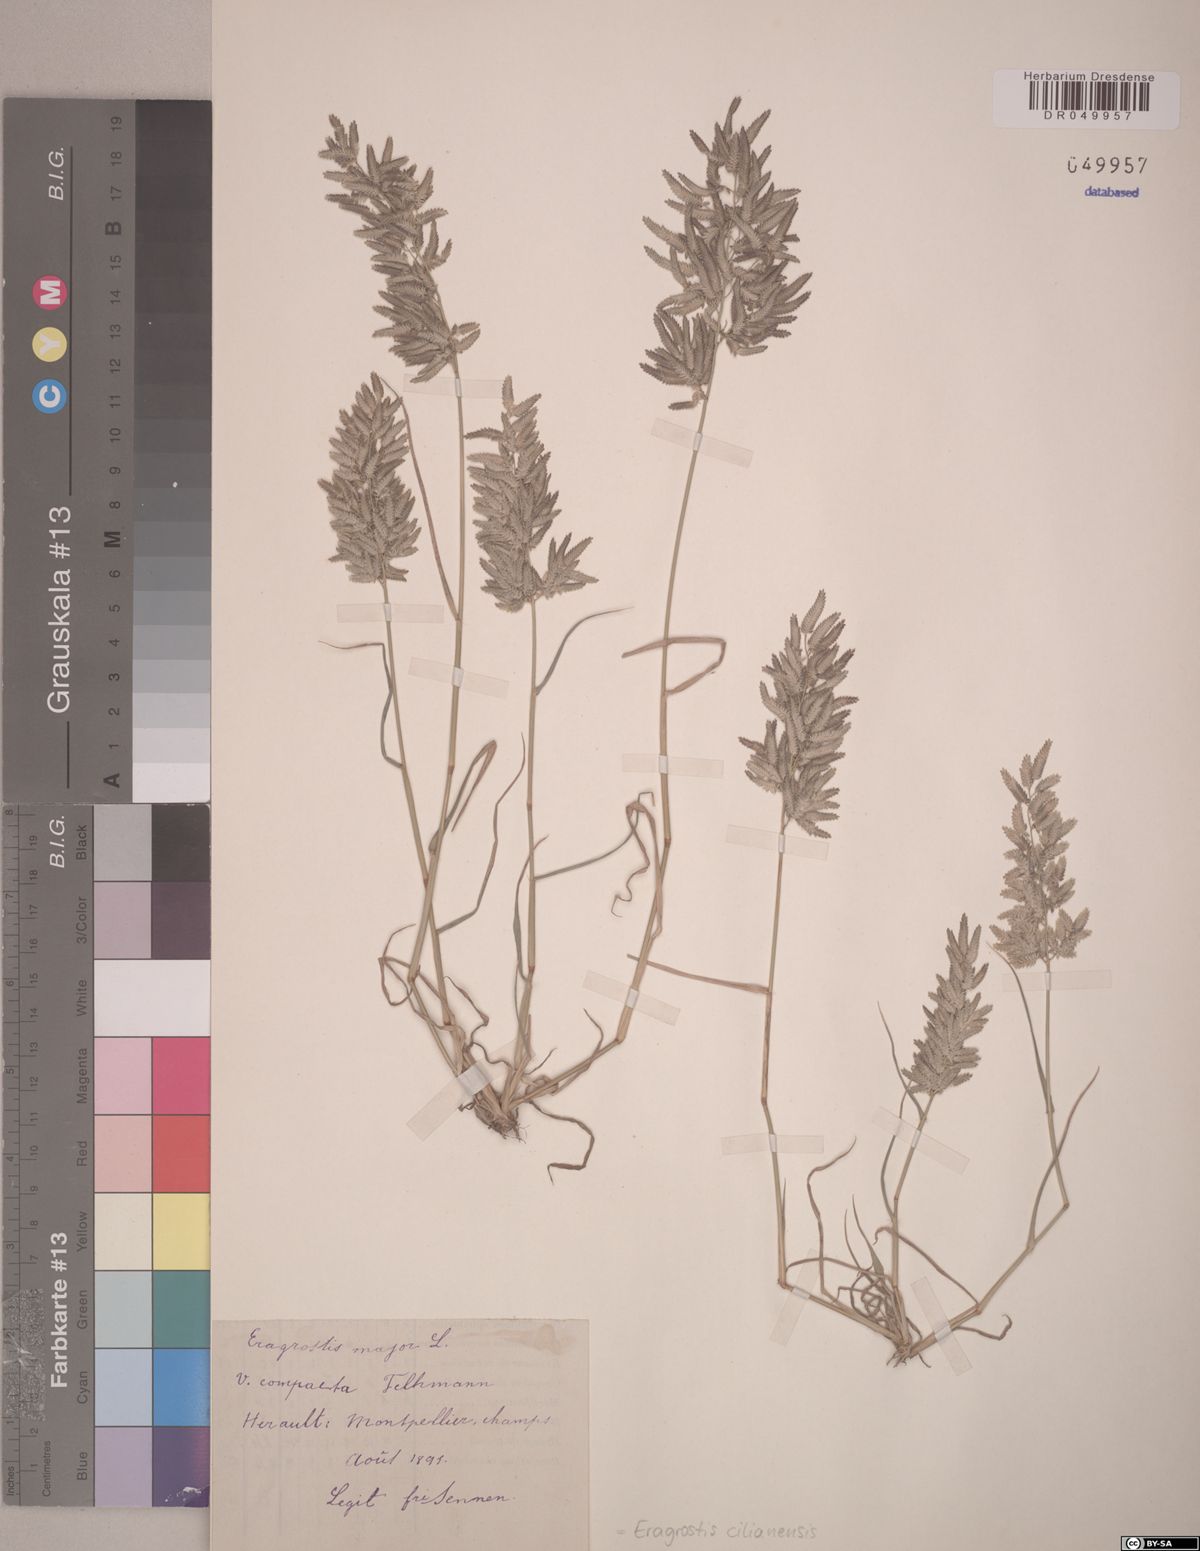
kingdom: Plantae
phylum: Tracheophyta
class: Liliopsida
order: Poales
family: Poaceae
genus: Eragrostis
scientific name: Eragrostis cilianensis
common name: Stinkgrass
